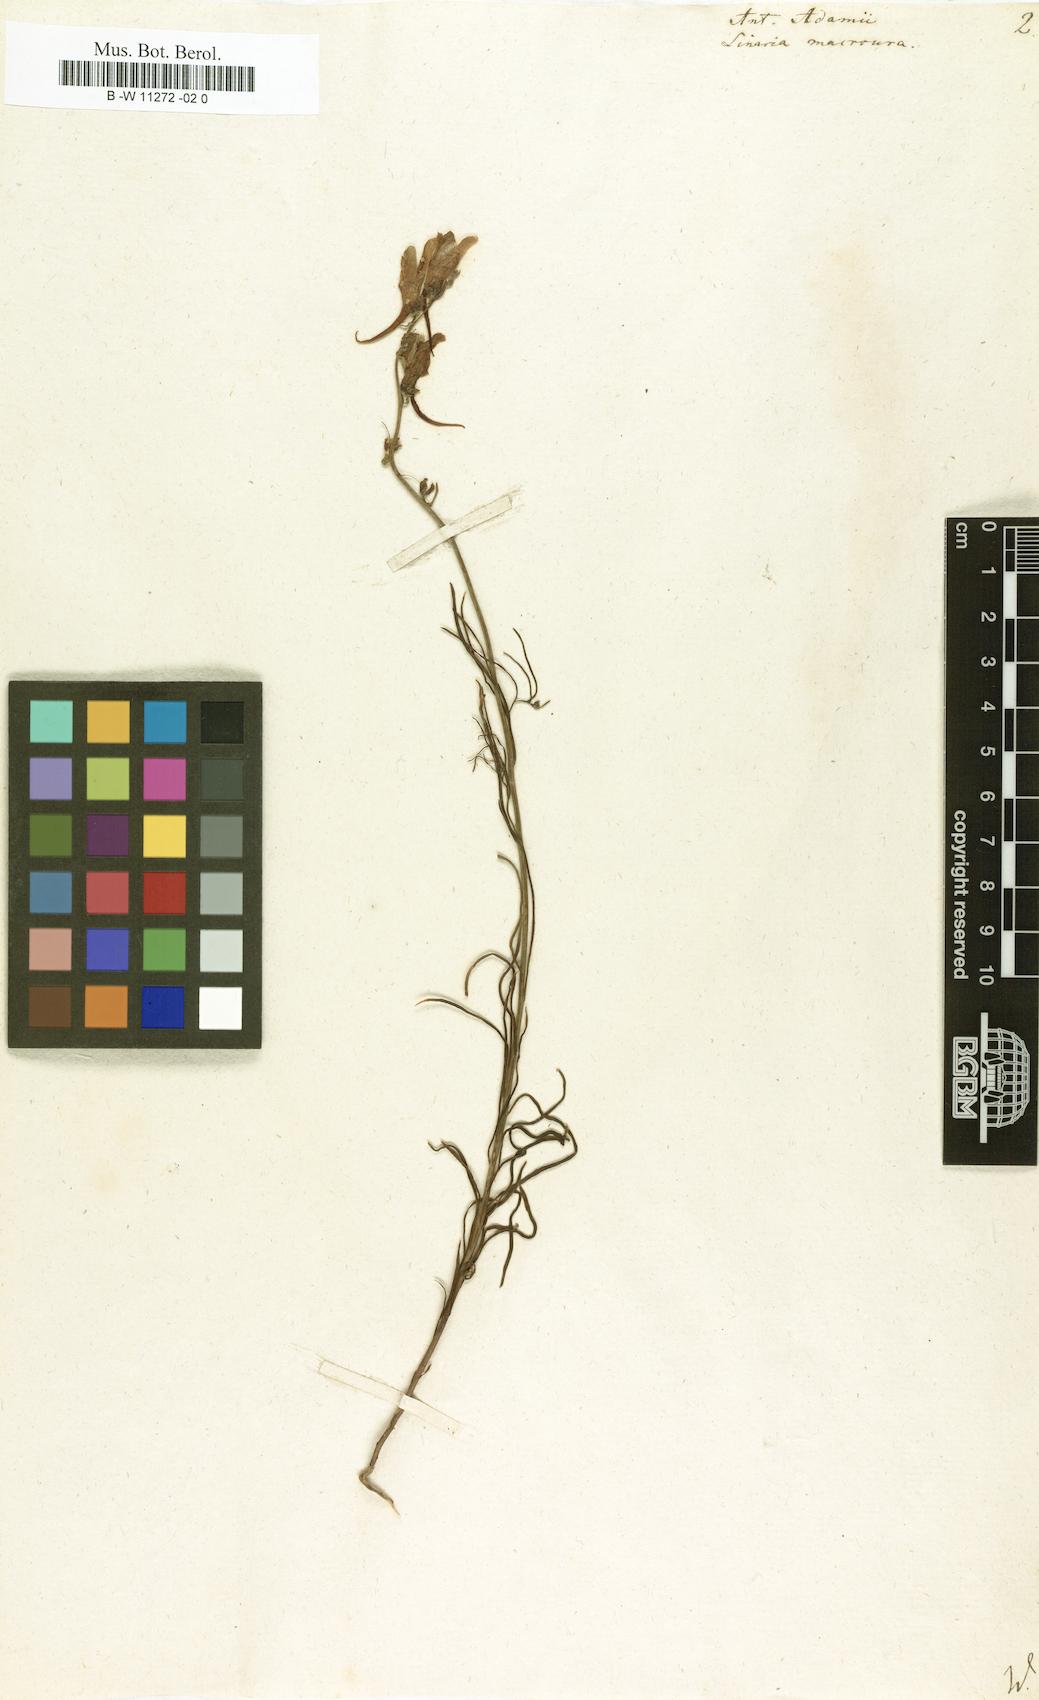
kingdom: Plantae
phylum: Tracheophyta
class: Magnoliopsida
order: Lamiales
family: Plantaginaceae
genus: Linaria
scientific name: Linaria macroura
